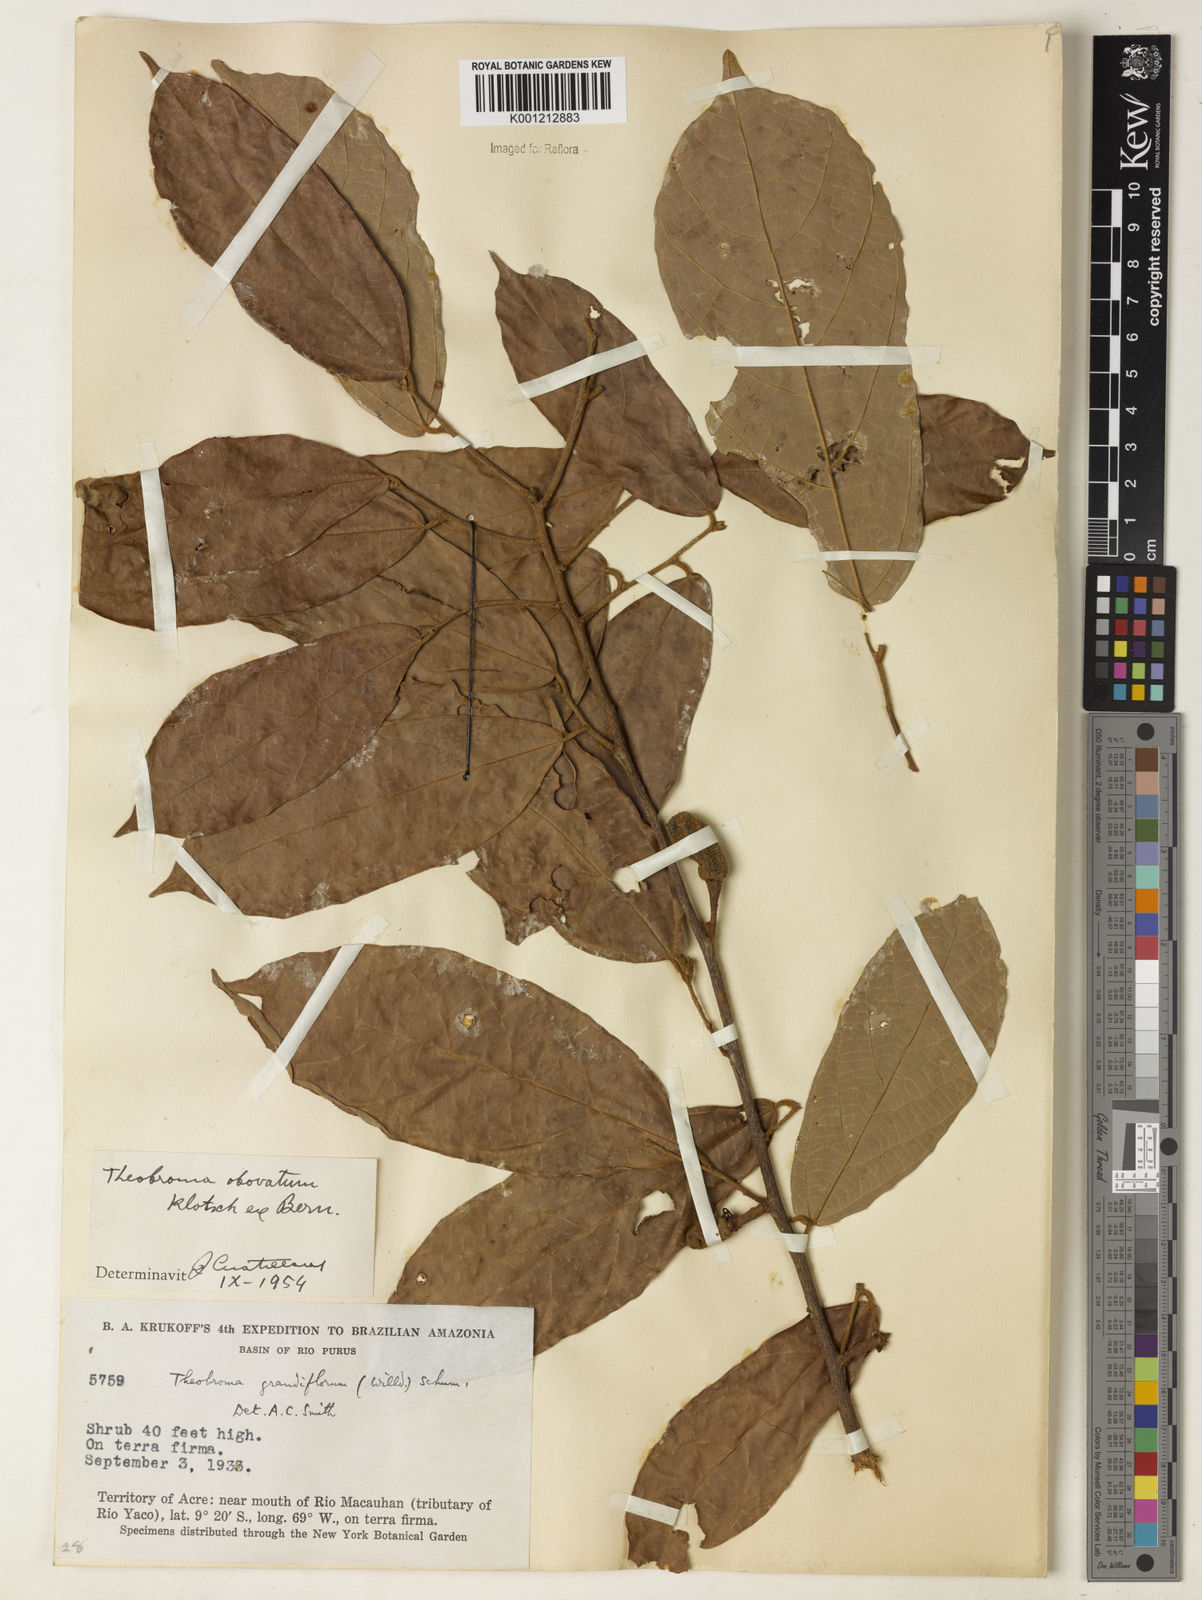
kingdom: Plantae
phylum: Tracheophyta
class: Magnoliopsida
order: Malvales
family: Malvaceae
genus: Theobroma
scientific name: Theobroma obovatum
